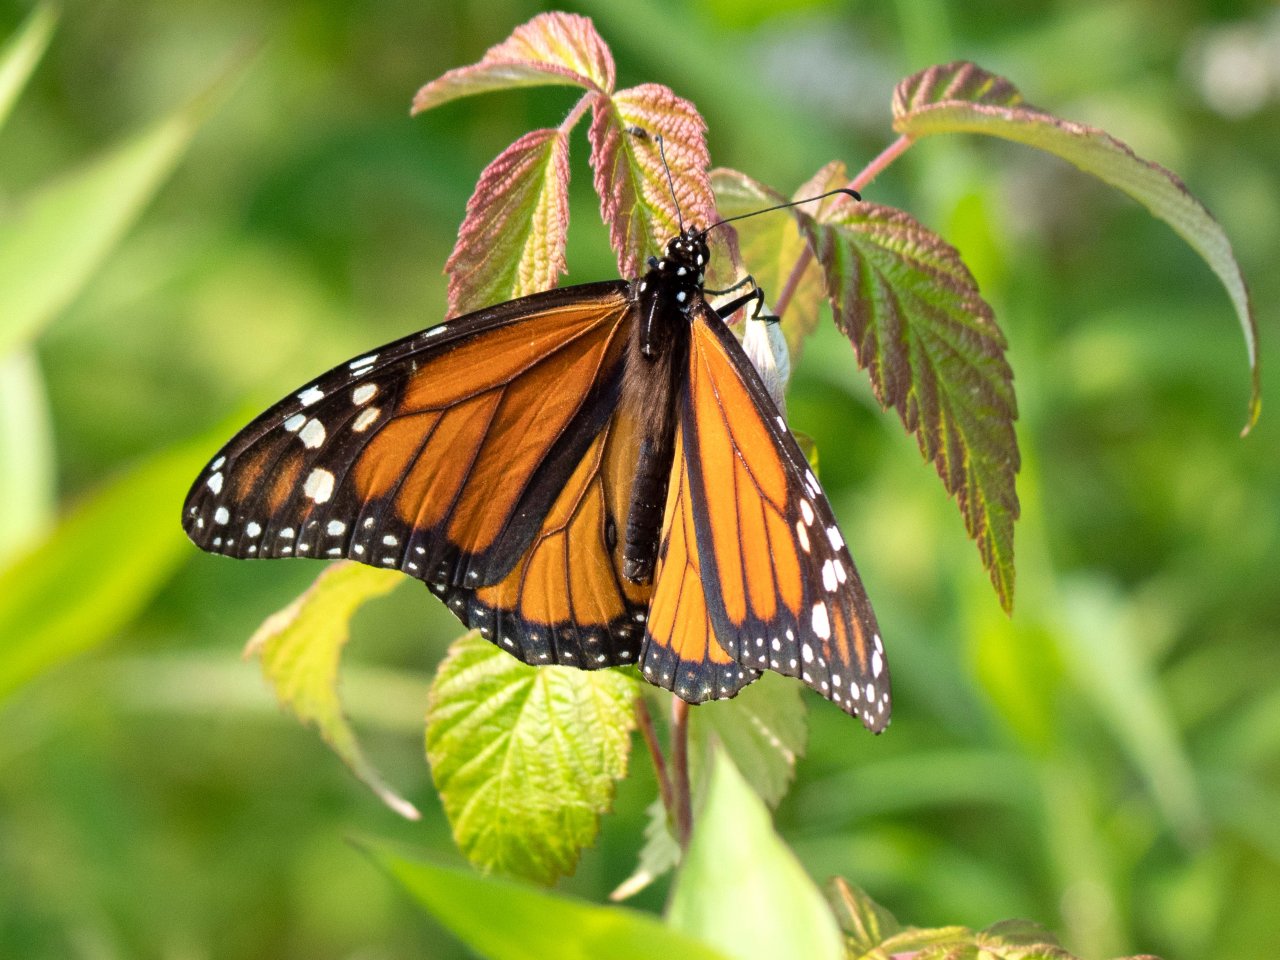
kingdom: Animalia
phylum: Arthropoda
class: Insecta
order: Lepidoptera
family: Nymphalidae
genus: Danaus
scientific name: Danaus plexippus
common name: Monarch
